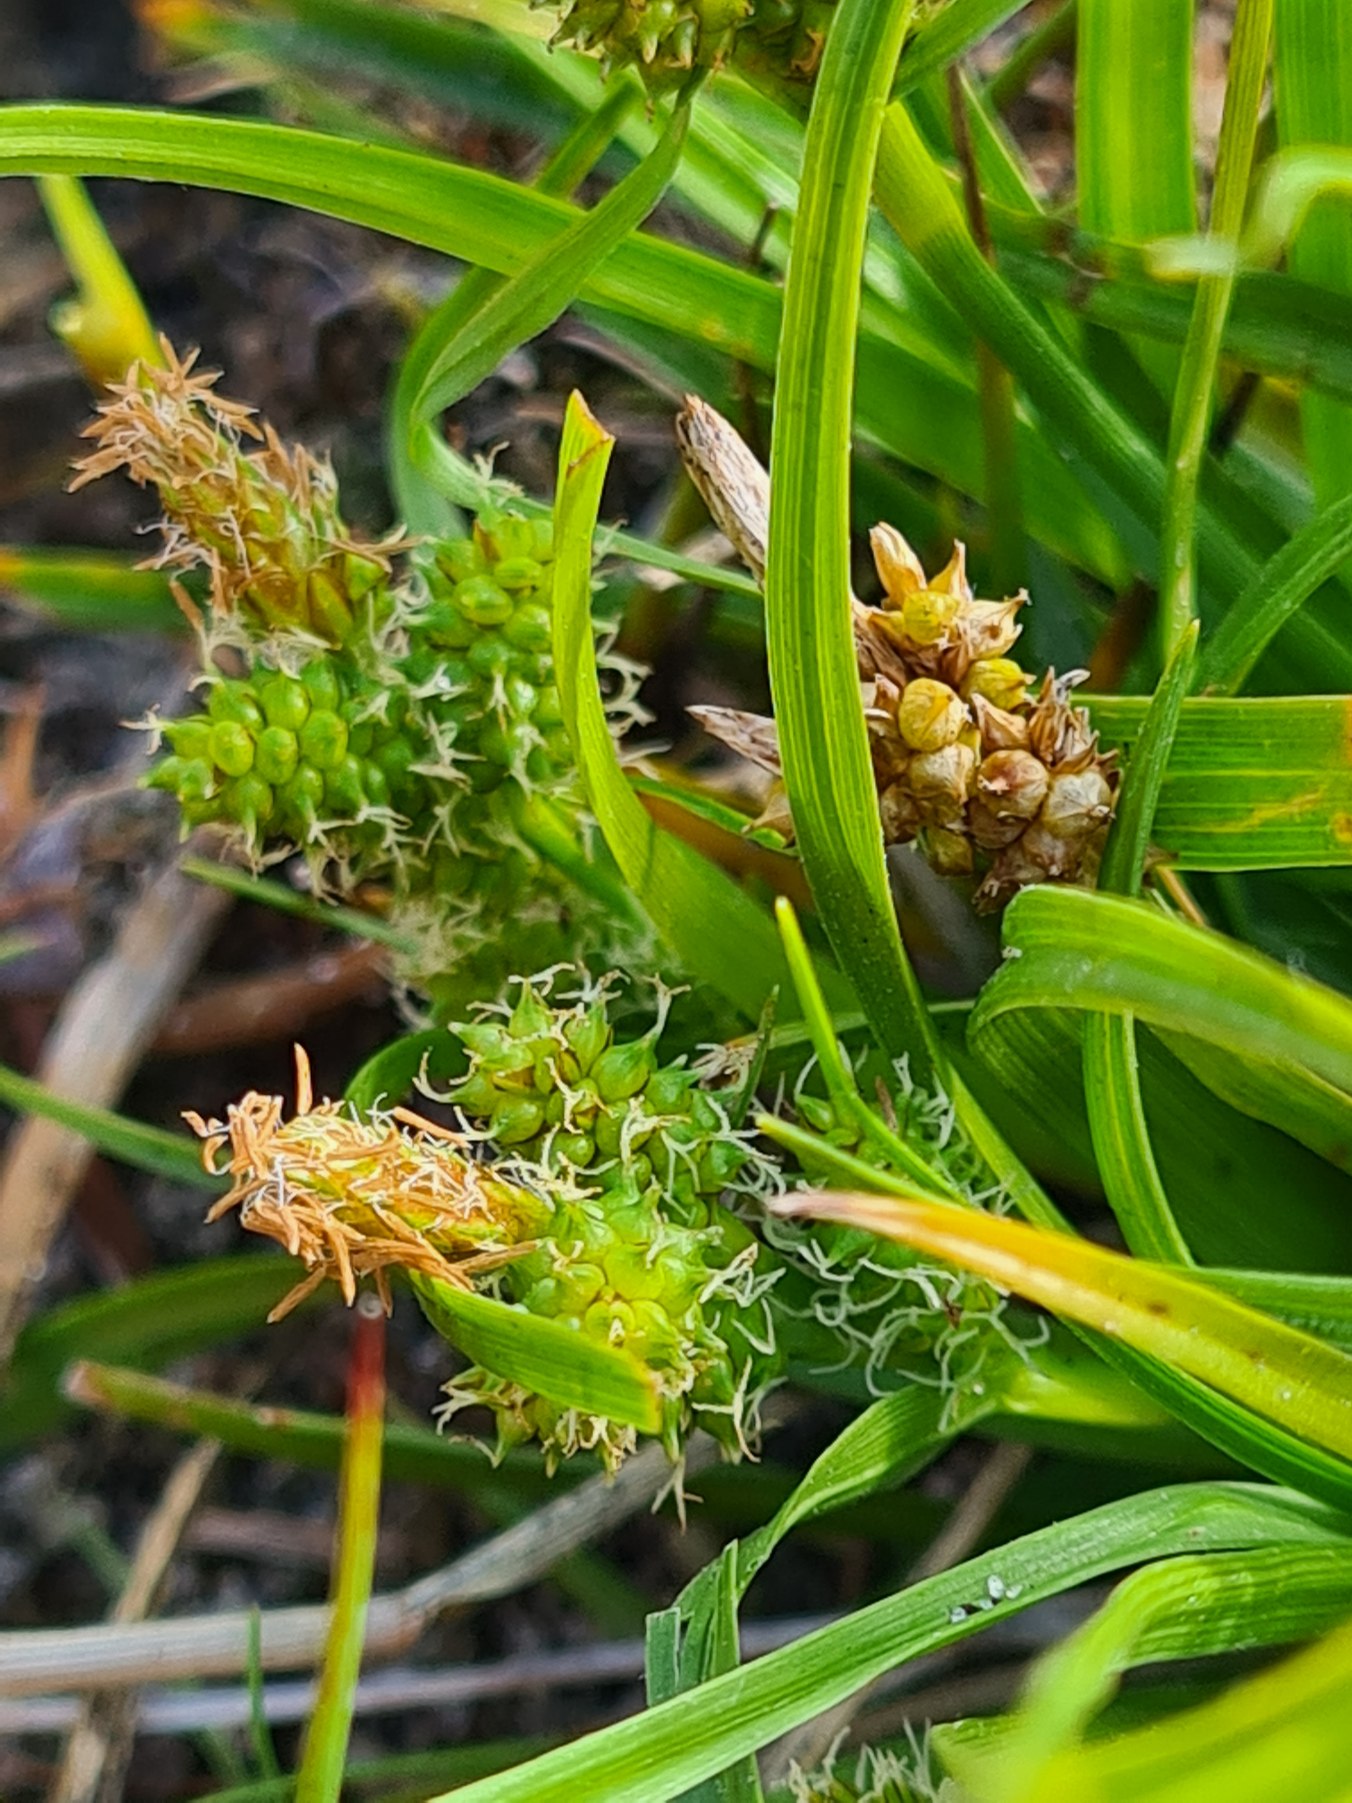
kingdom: Plantae
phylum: Tracheophyta
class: Liliopsida
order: Poales
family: Cyperaceae
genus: Carex
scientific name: Carex oederi
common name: Dværg-star
